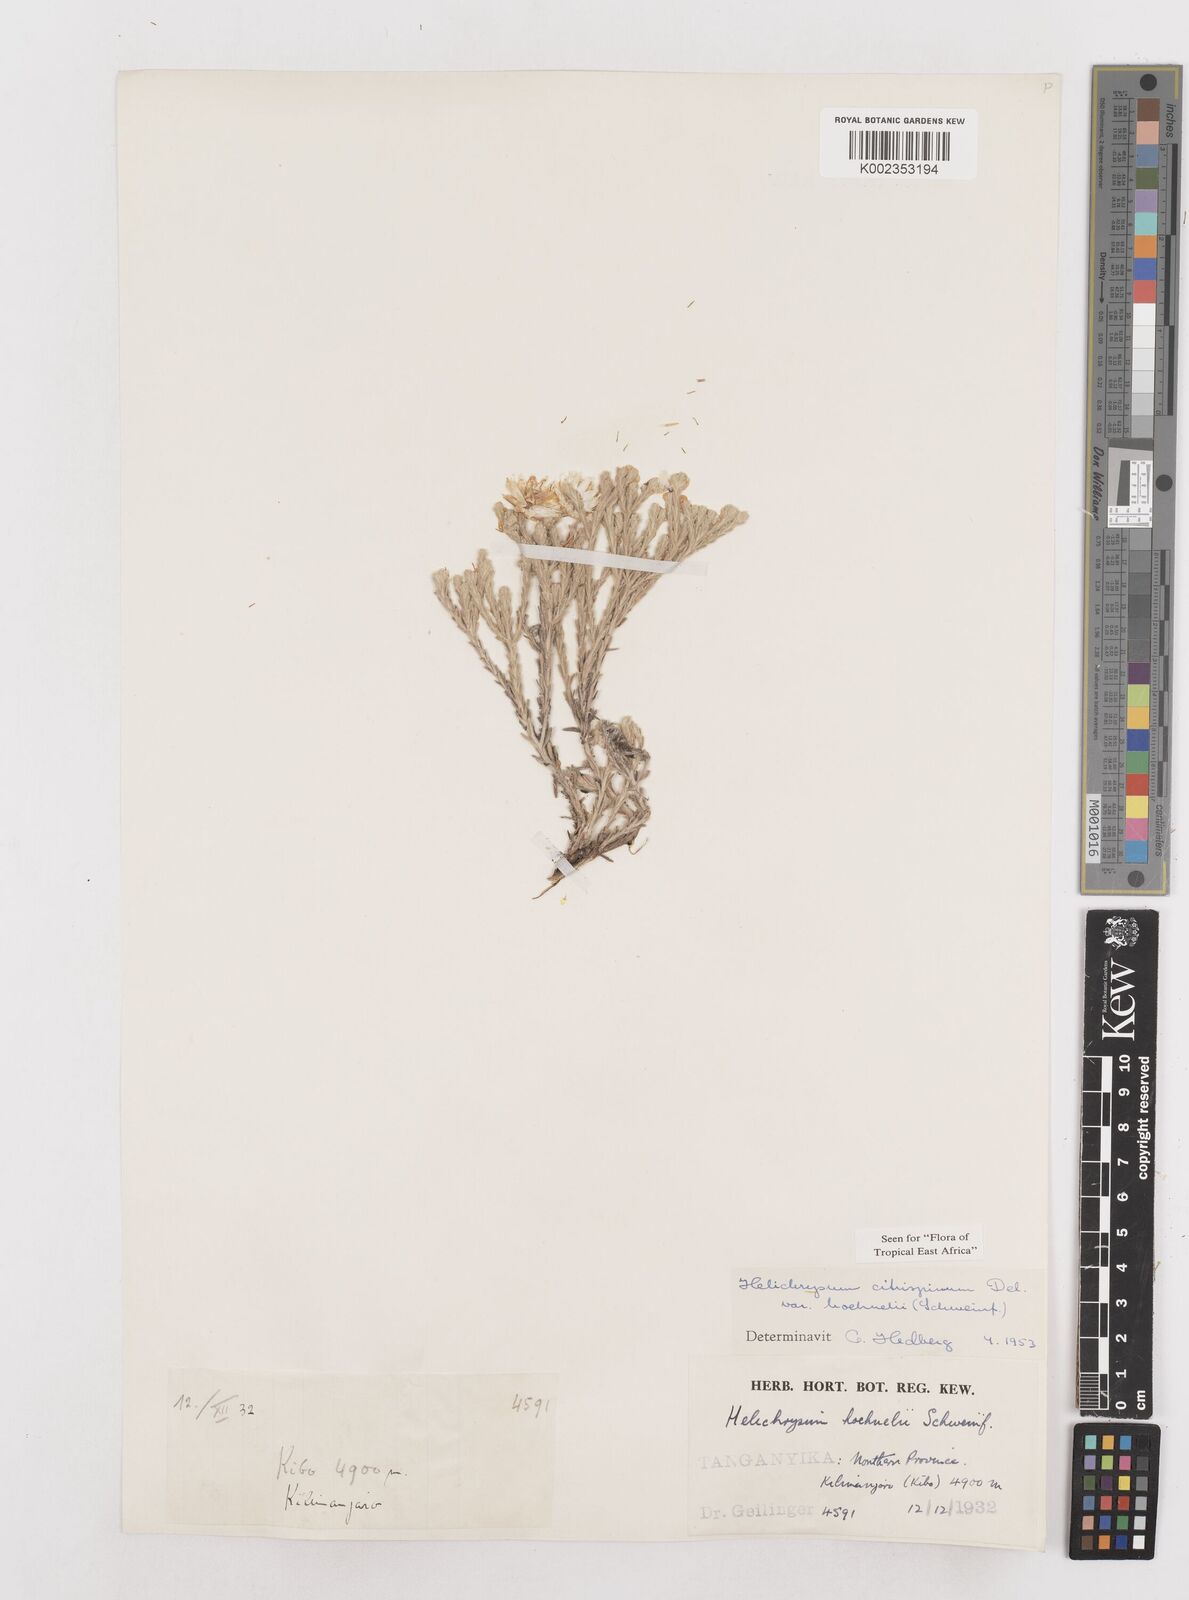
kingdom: Plantae
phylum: Tracheophyta
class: Magnoliopsida
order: Asterales
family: Asteraceae
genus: Helichrysum
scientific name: Helichrysum citrispinum
